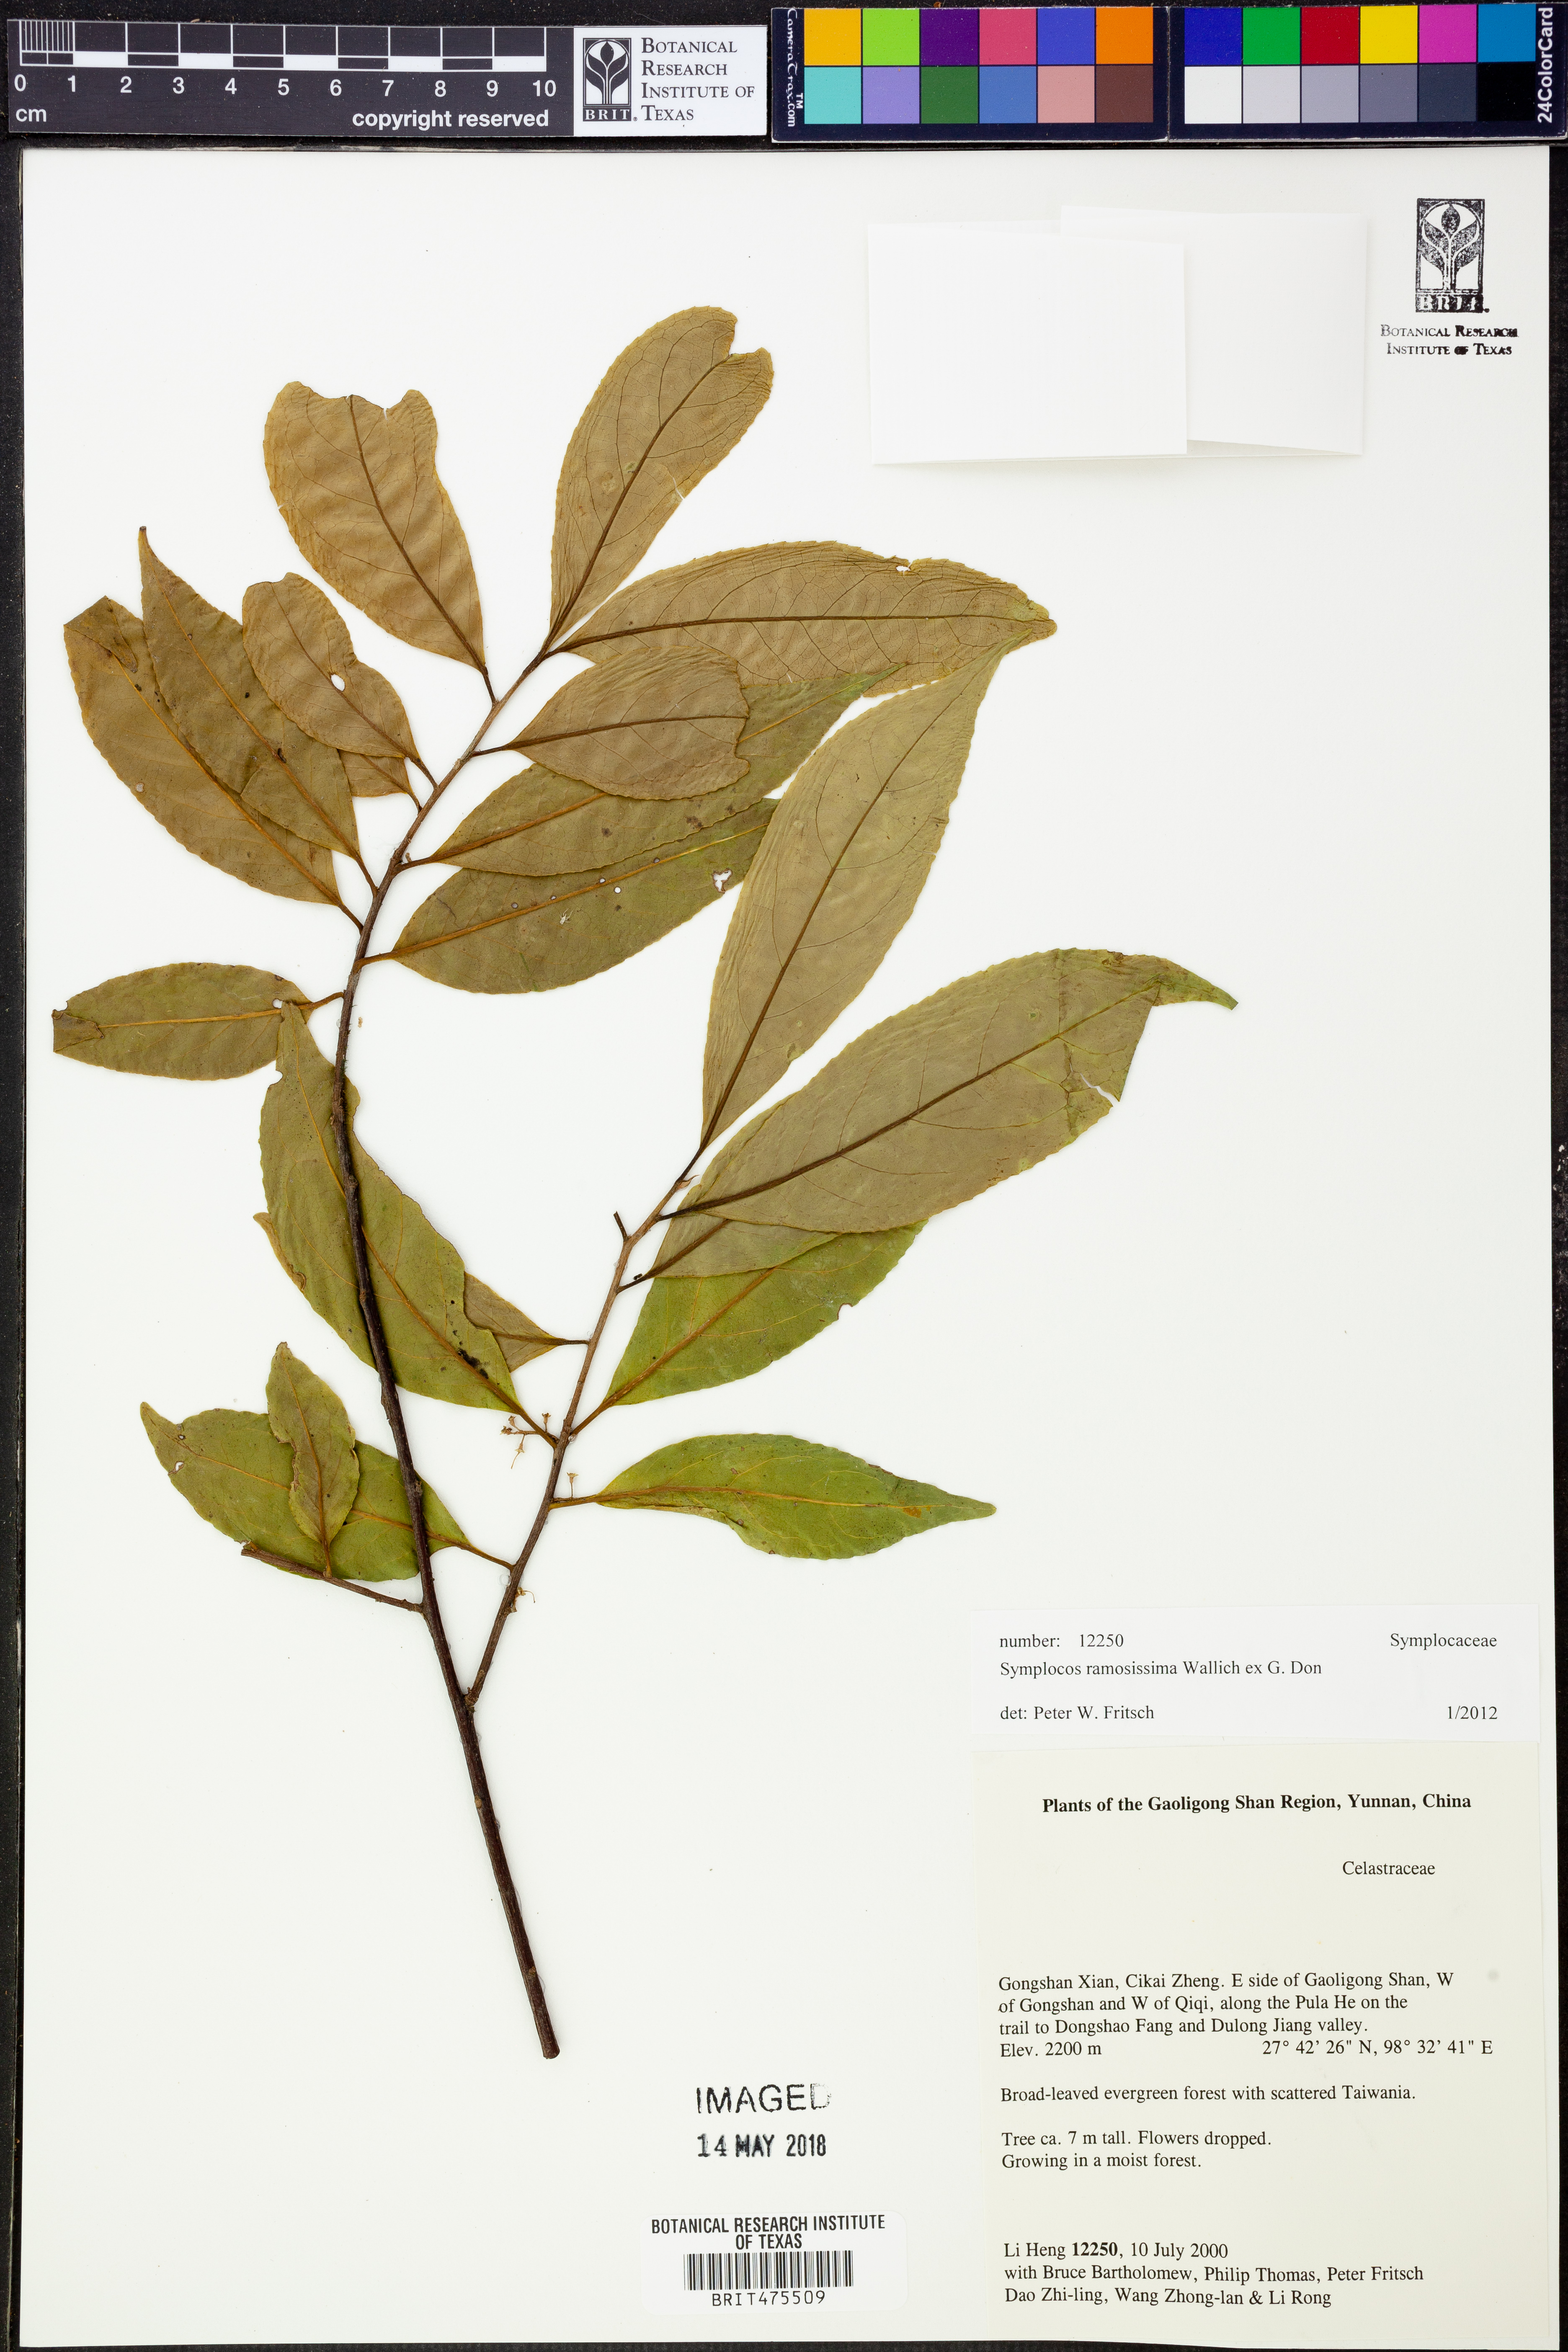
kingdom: Plantae
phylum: Tracheophyta
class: Magnoliopsida
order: Ericales
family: Symplocaceae
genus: Symplocos
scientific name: Symplocos ramosissima
